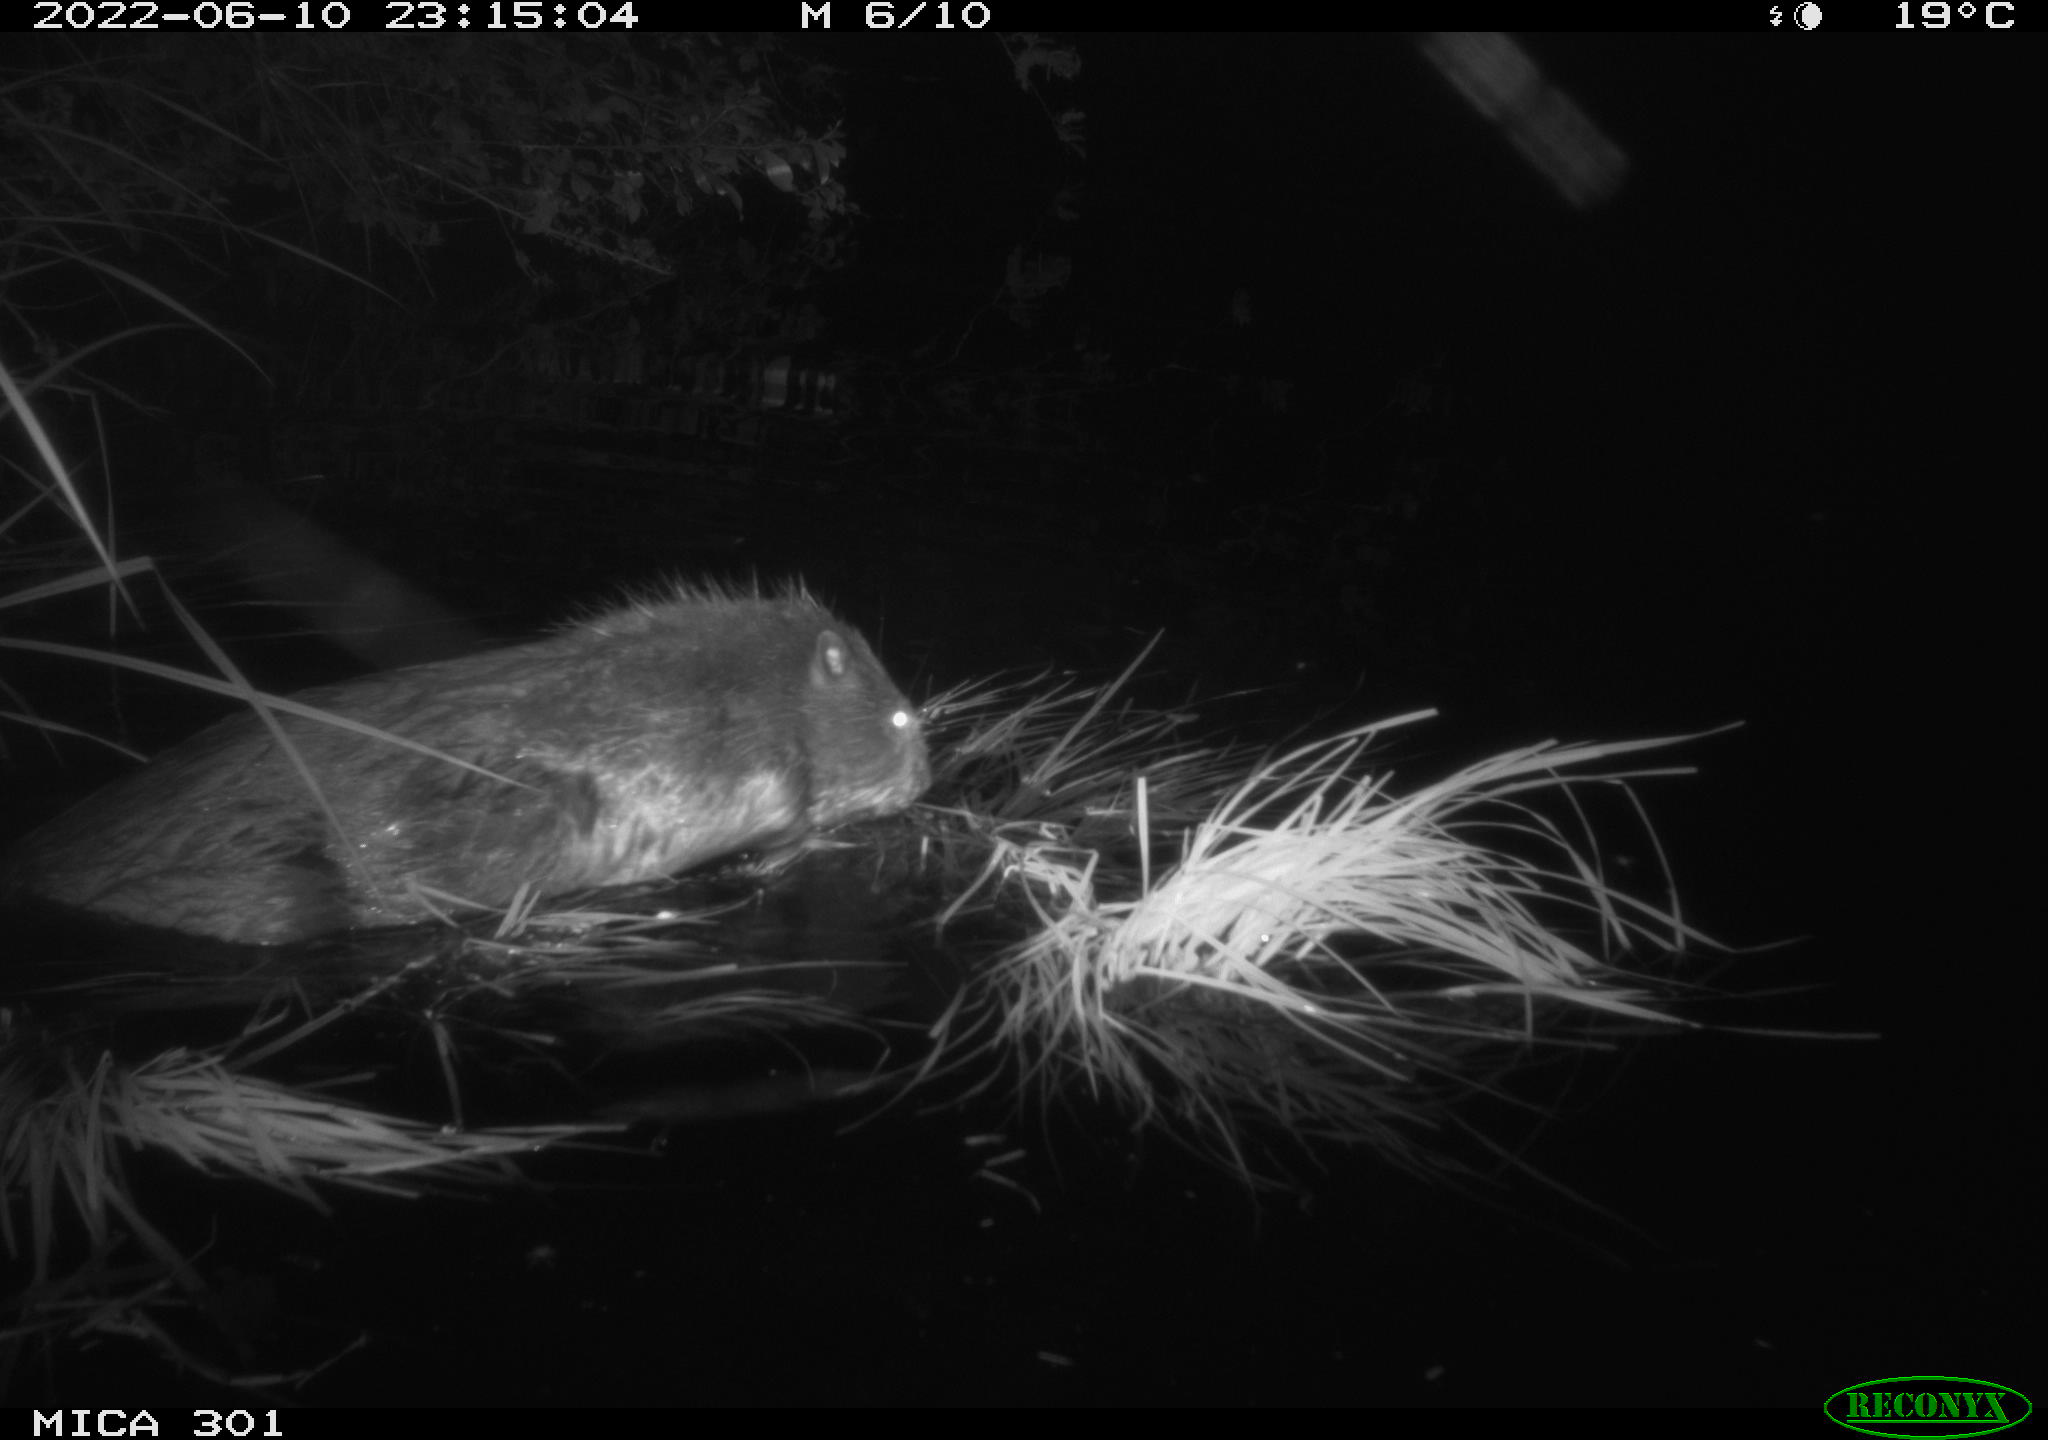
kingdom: Animalia
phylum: Chordata
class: Mammalia
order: Rodentia
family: Castoridae
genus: Castor
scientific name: Castor fiber
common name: Eurasian beaver
